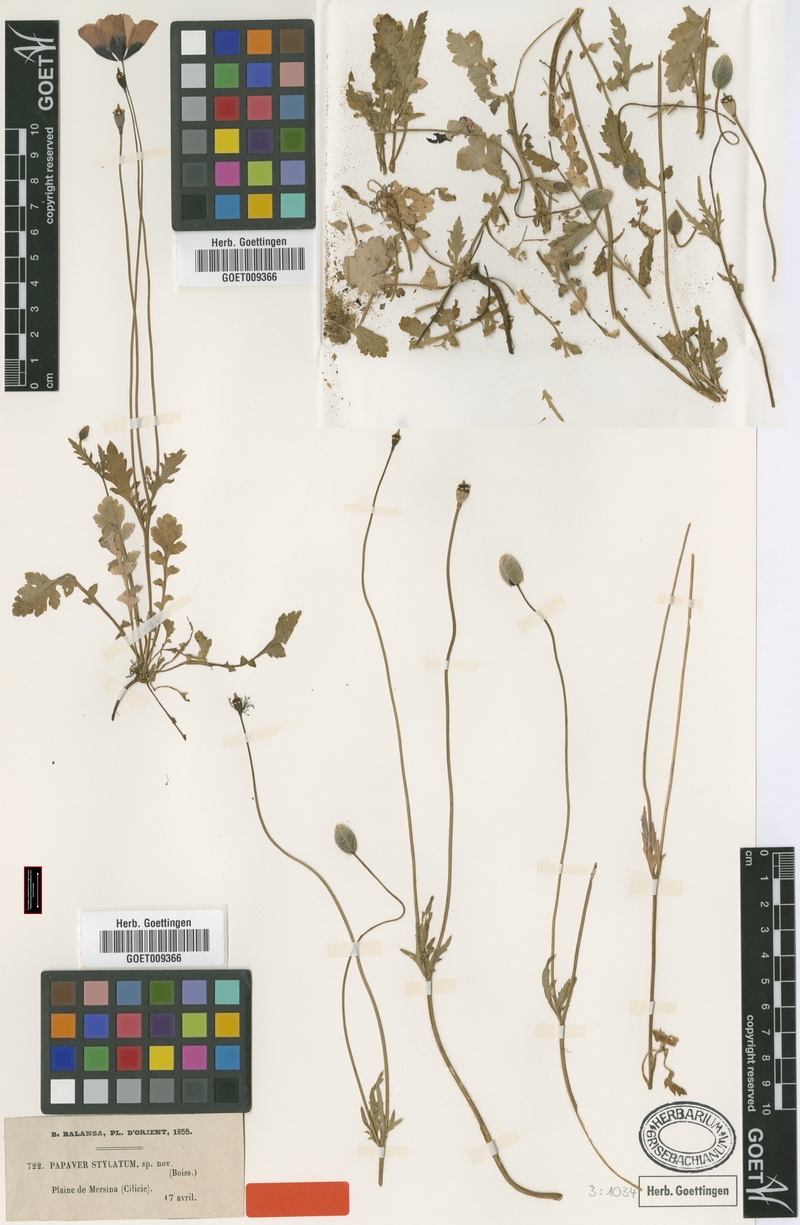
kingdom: Plantae
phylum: Tracheophyta
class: Magnoliopsida
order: Ranunculales
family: Papaveraceae
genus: Papaver
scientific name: Papaver umbonatum
